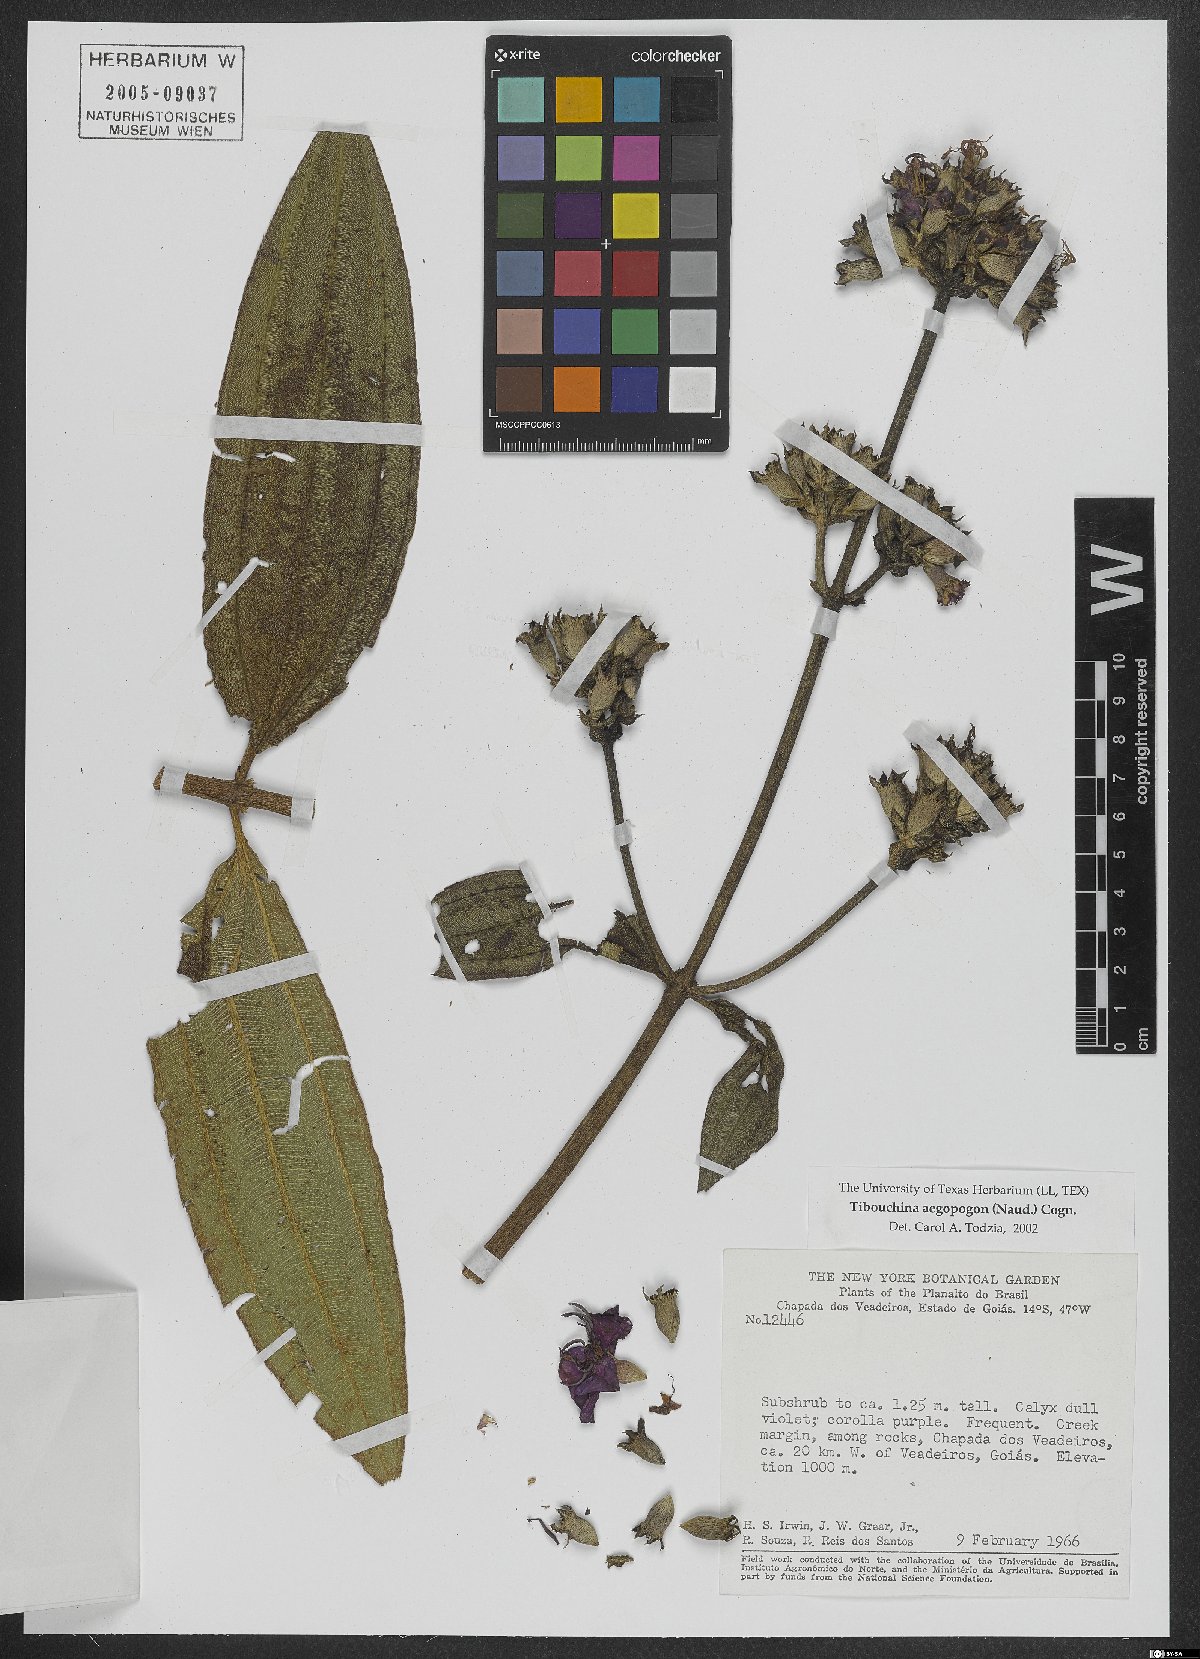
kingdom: Plantae
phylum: Tracheophyta
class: Magnoliopsida
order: Myrtales
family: Melastomataceae
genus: Pleroma
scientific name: Pleroma aegopogon
